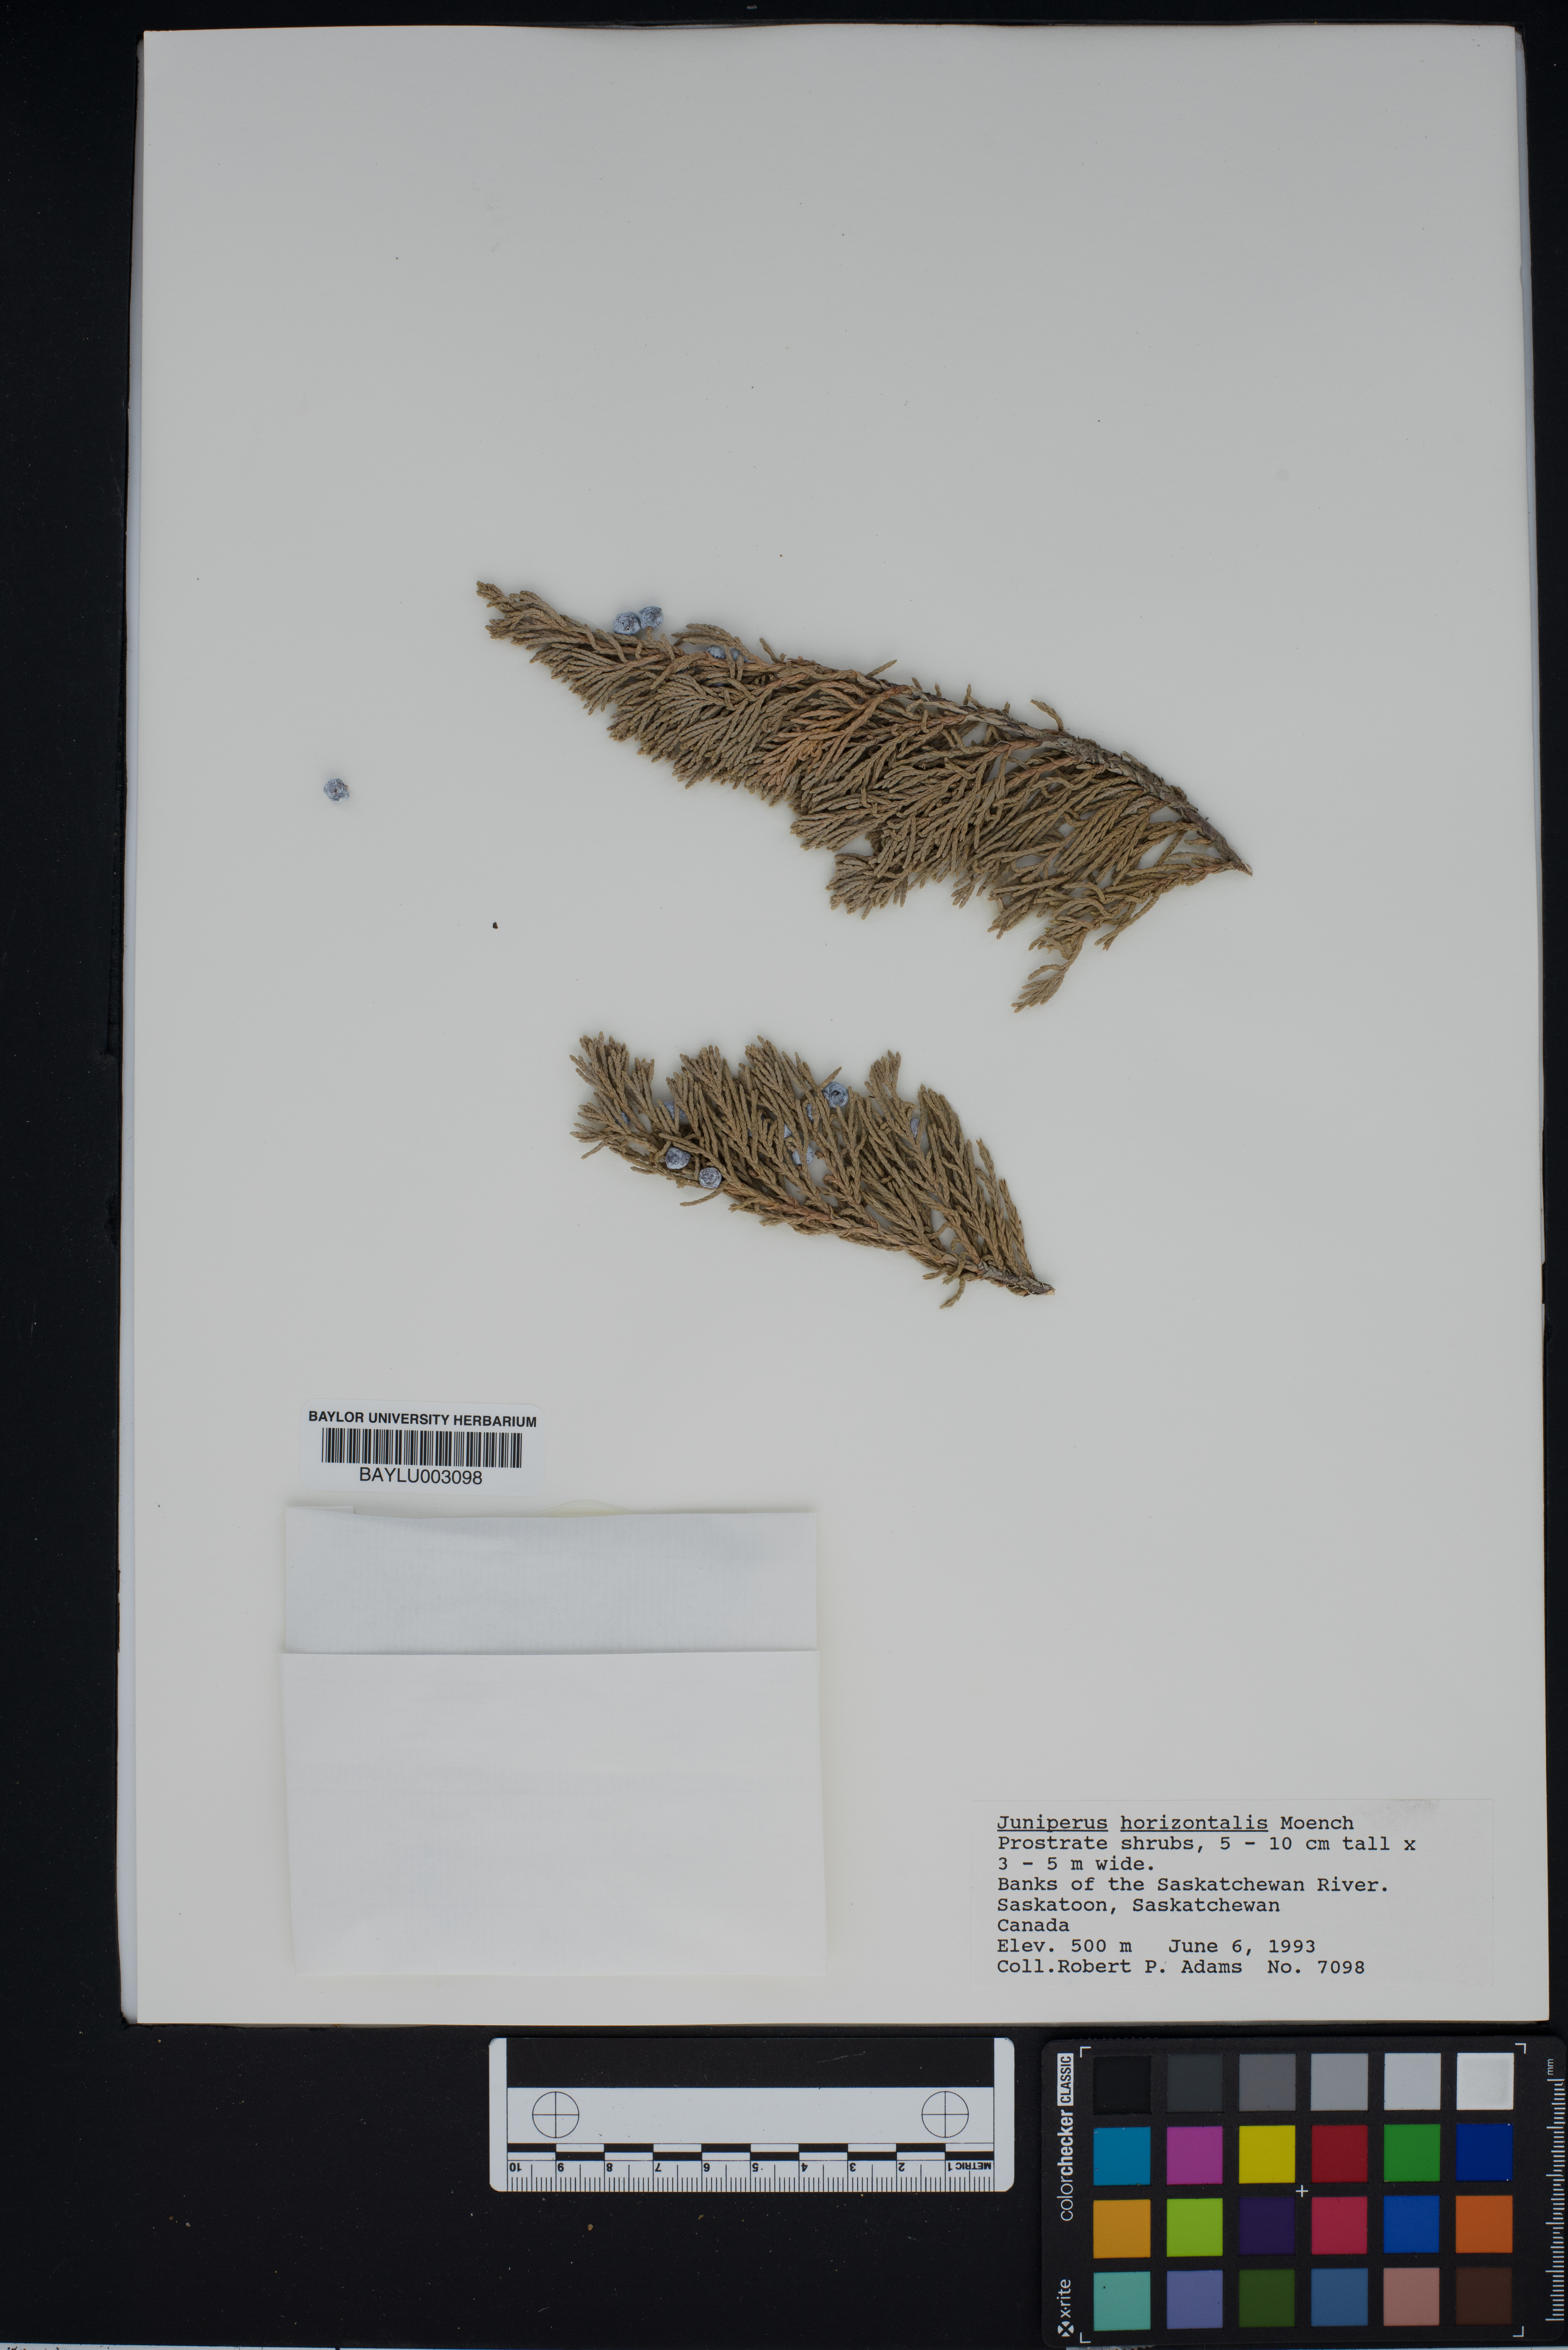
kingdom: Plantae
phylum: Tracheophyta
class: Pinopsida
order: Pinales
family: Cupressaceae
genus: Juniperus
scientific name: Juniperus horizontalis
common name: Creeping juniper
